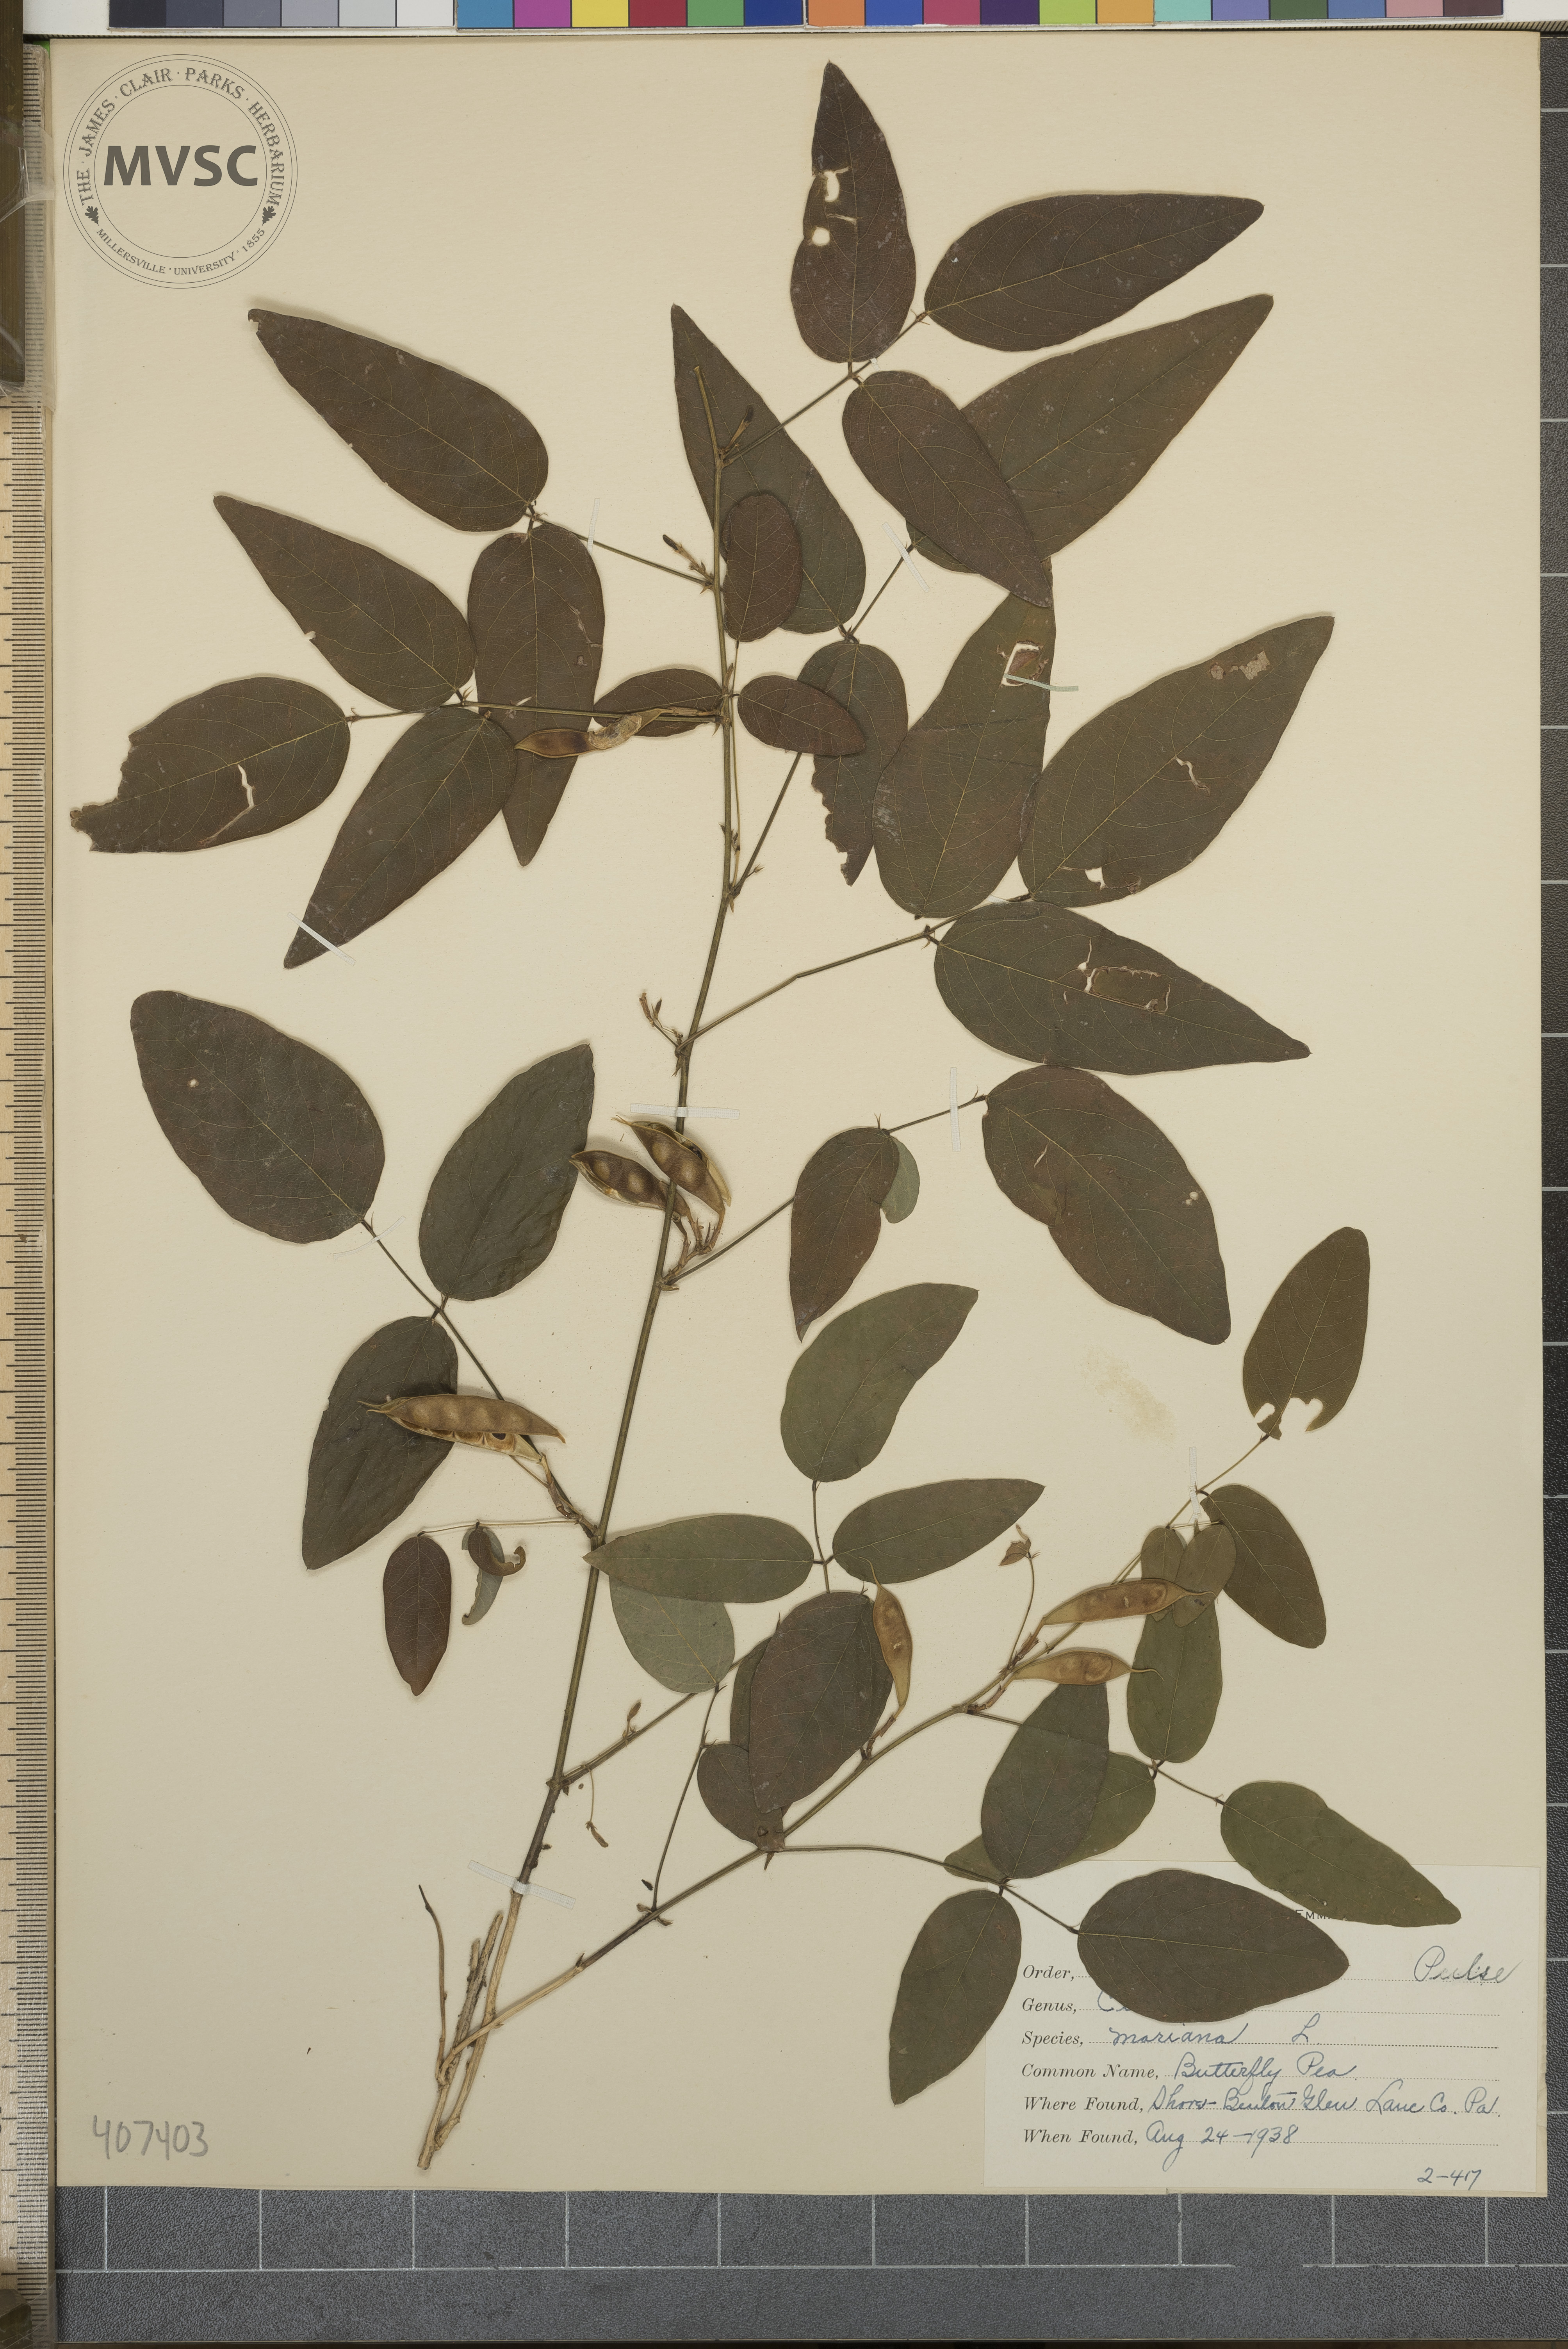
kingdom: Plantae
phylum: Tracheophyta
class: Magnoliopsida
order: Fabales
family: Fabaceae
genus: Clitoria
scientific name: Clitoria mariana
